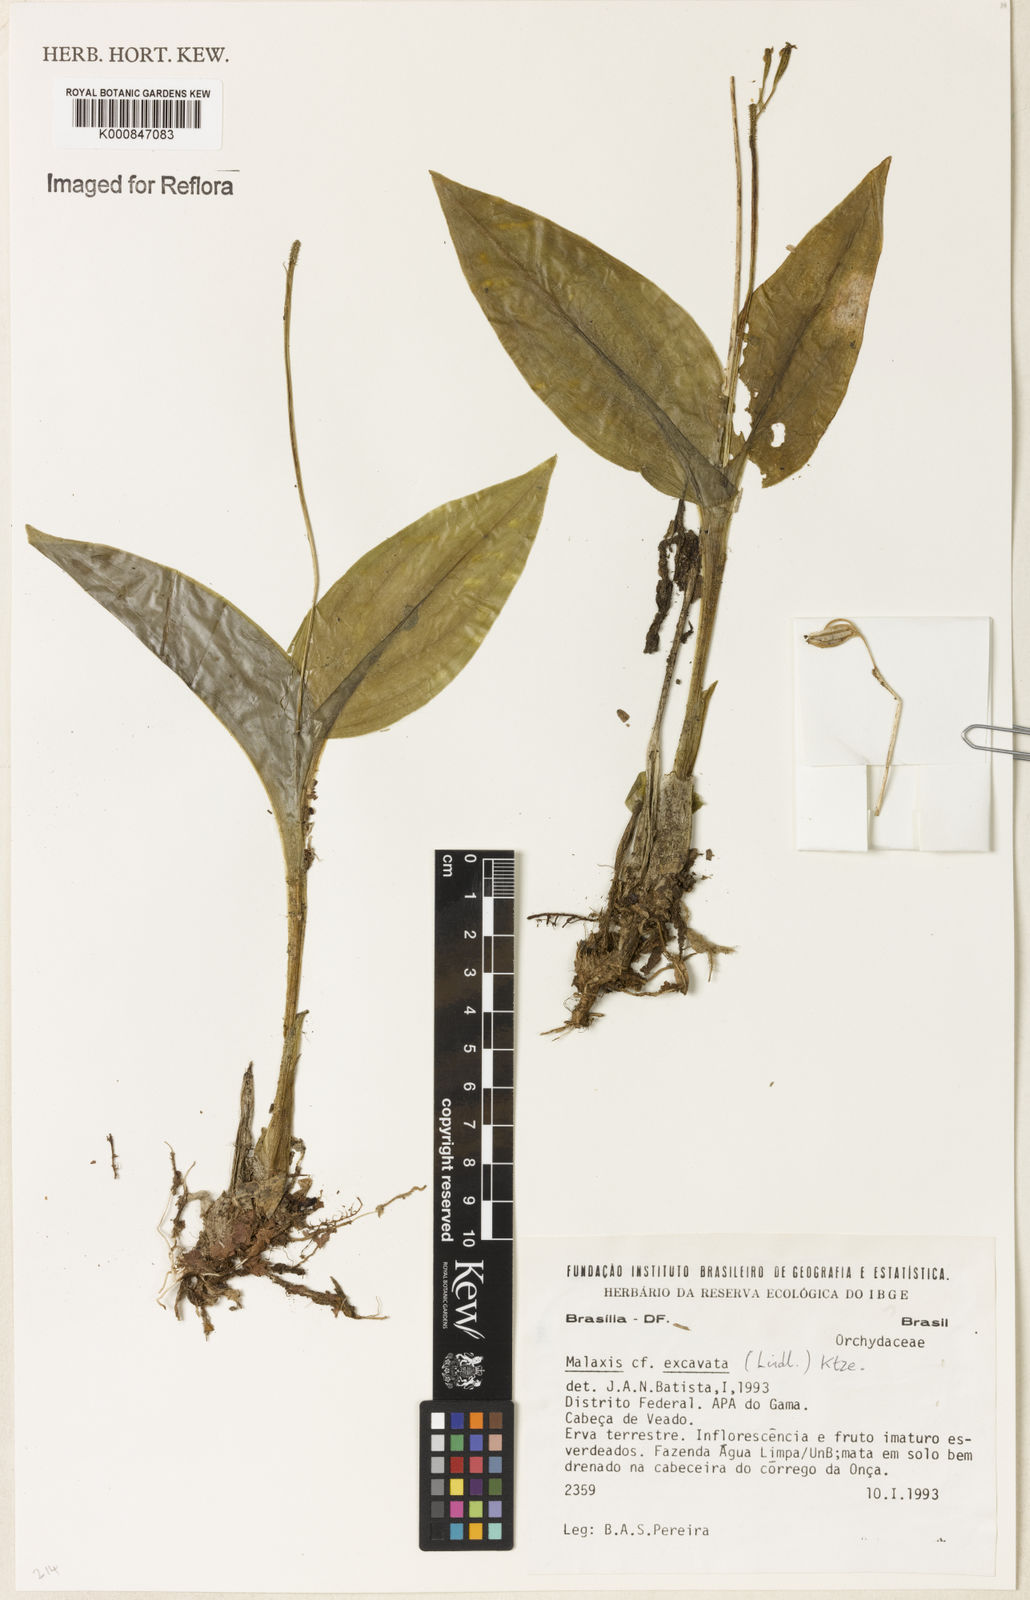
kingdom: Plantae
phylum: Tracheophyta
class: Liliopsida
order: Asparagales
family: Orchidaceae
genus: Liparis
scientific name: Liparis
